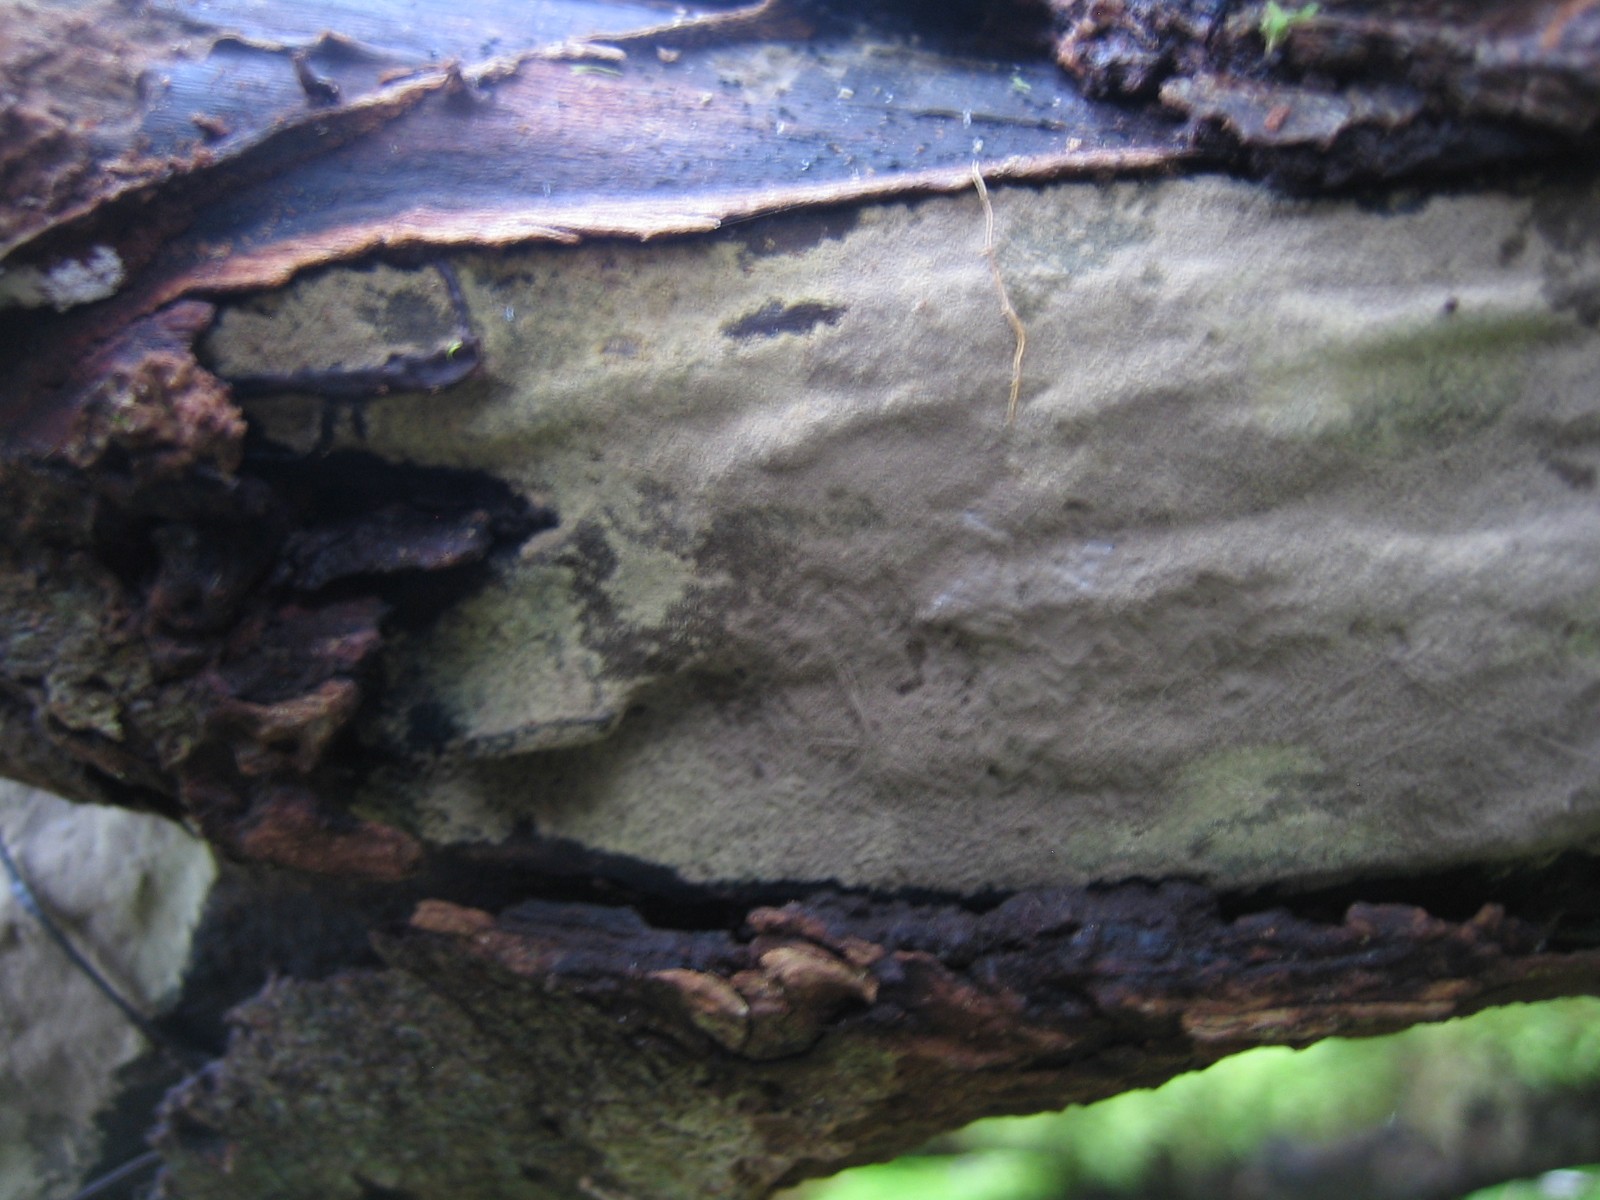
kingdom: Fungi
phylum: Ascomycota
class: Sordariomycetes
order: Xylariales
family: Hypoxylaceae
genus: Hypoxylon
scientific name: Hypoxylon
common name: kulbær
